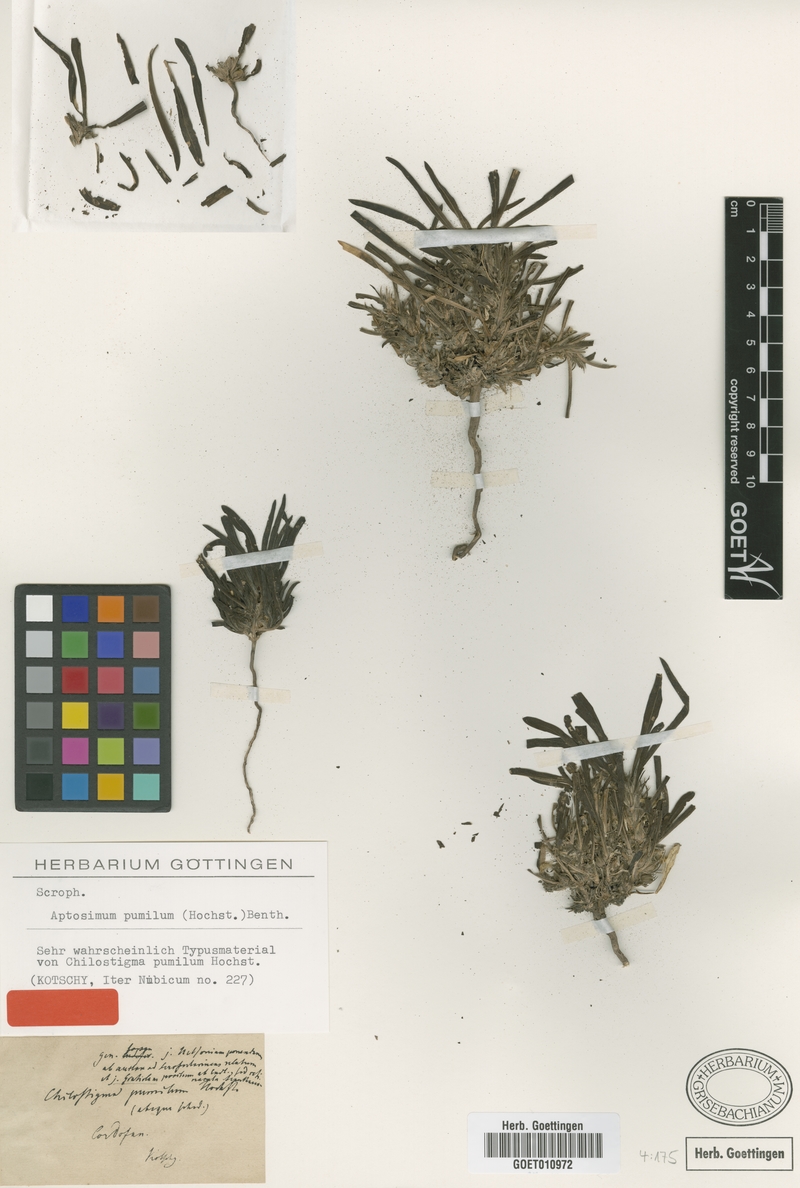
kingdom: Plantae
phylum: Tracheophyta
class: Magnoliopsida
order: Lamiales
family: Scrophulariaceae
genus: Aptosimum
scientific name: Aptosimum pumilum
